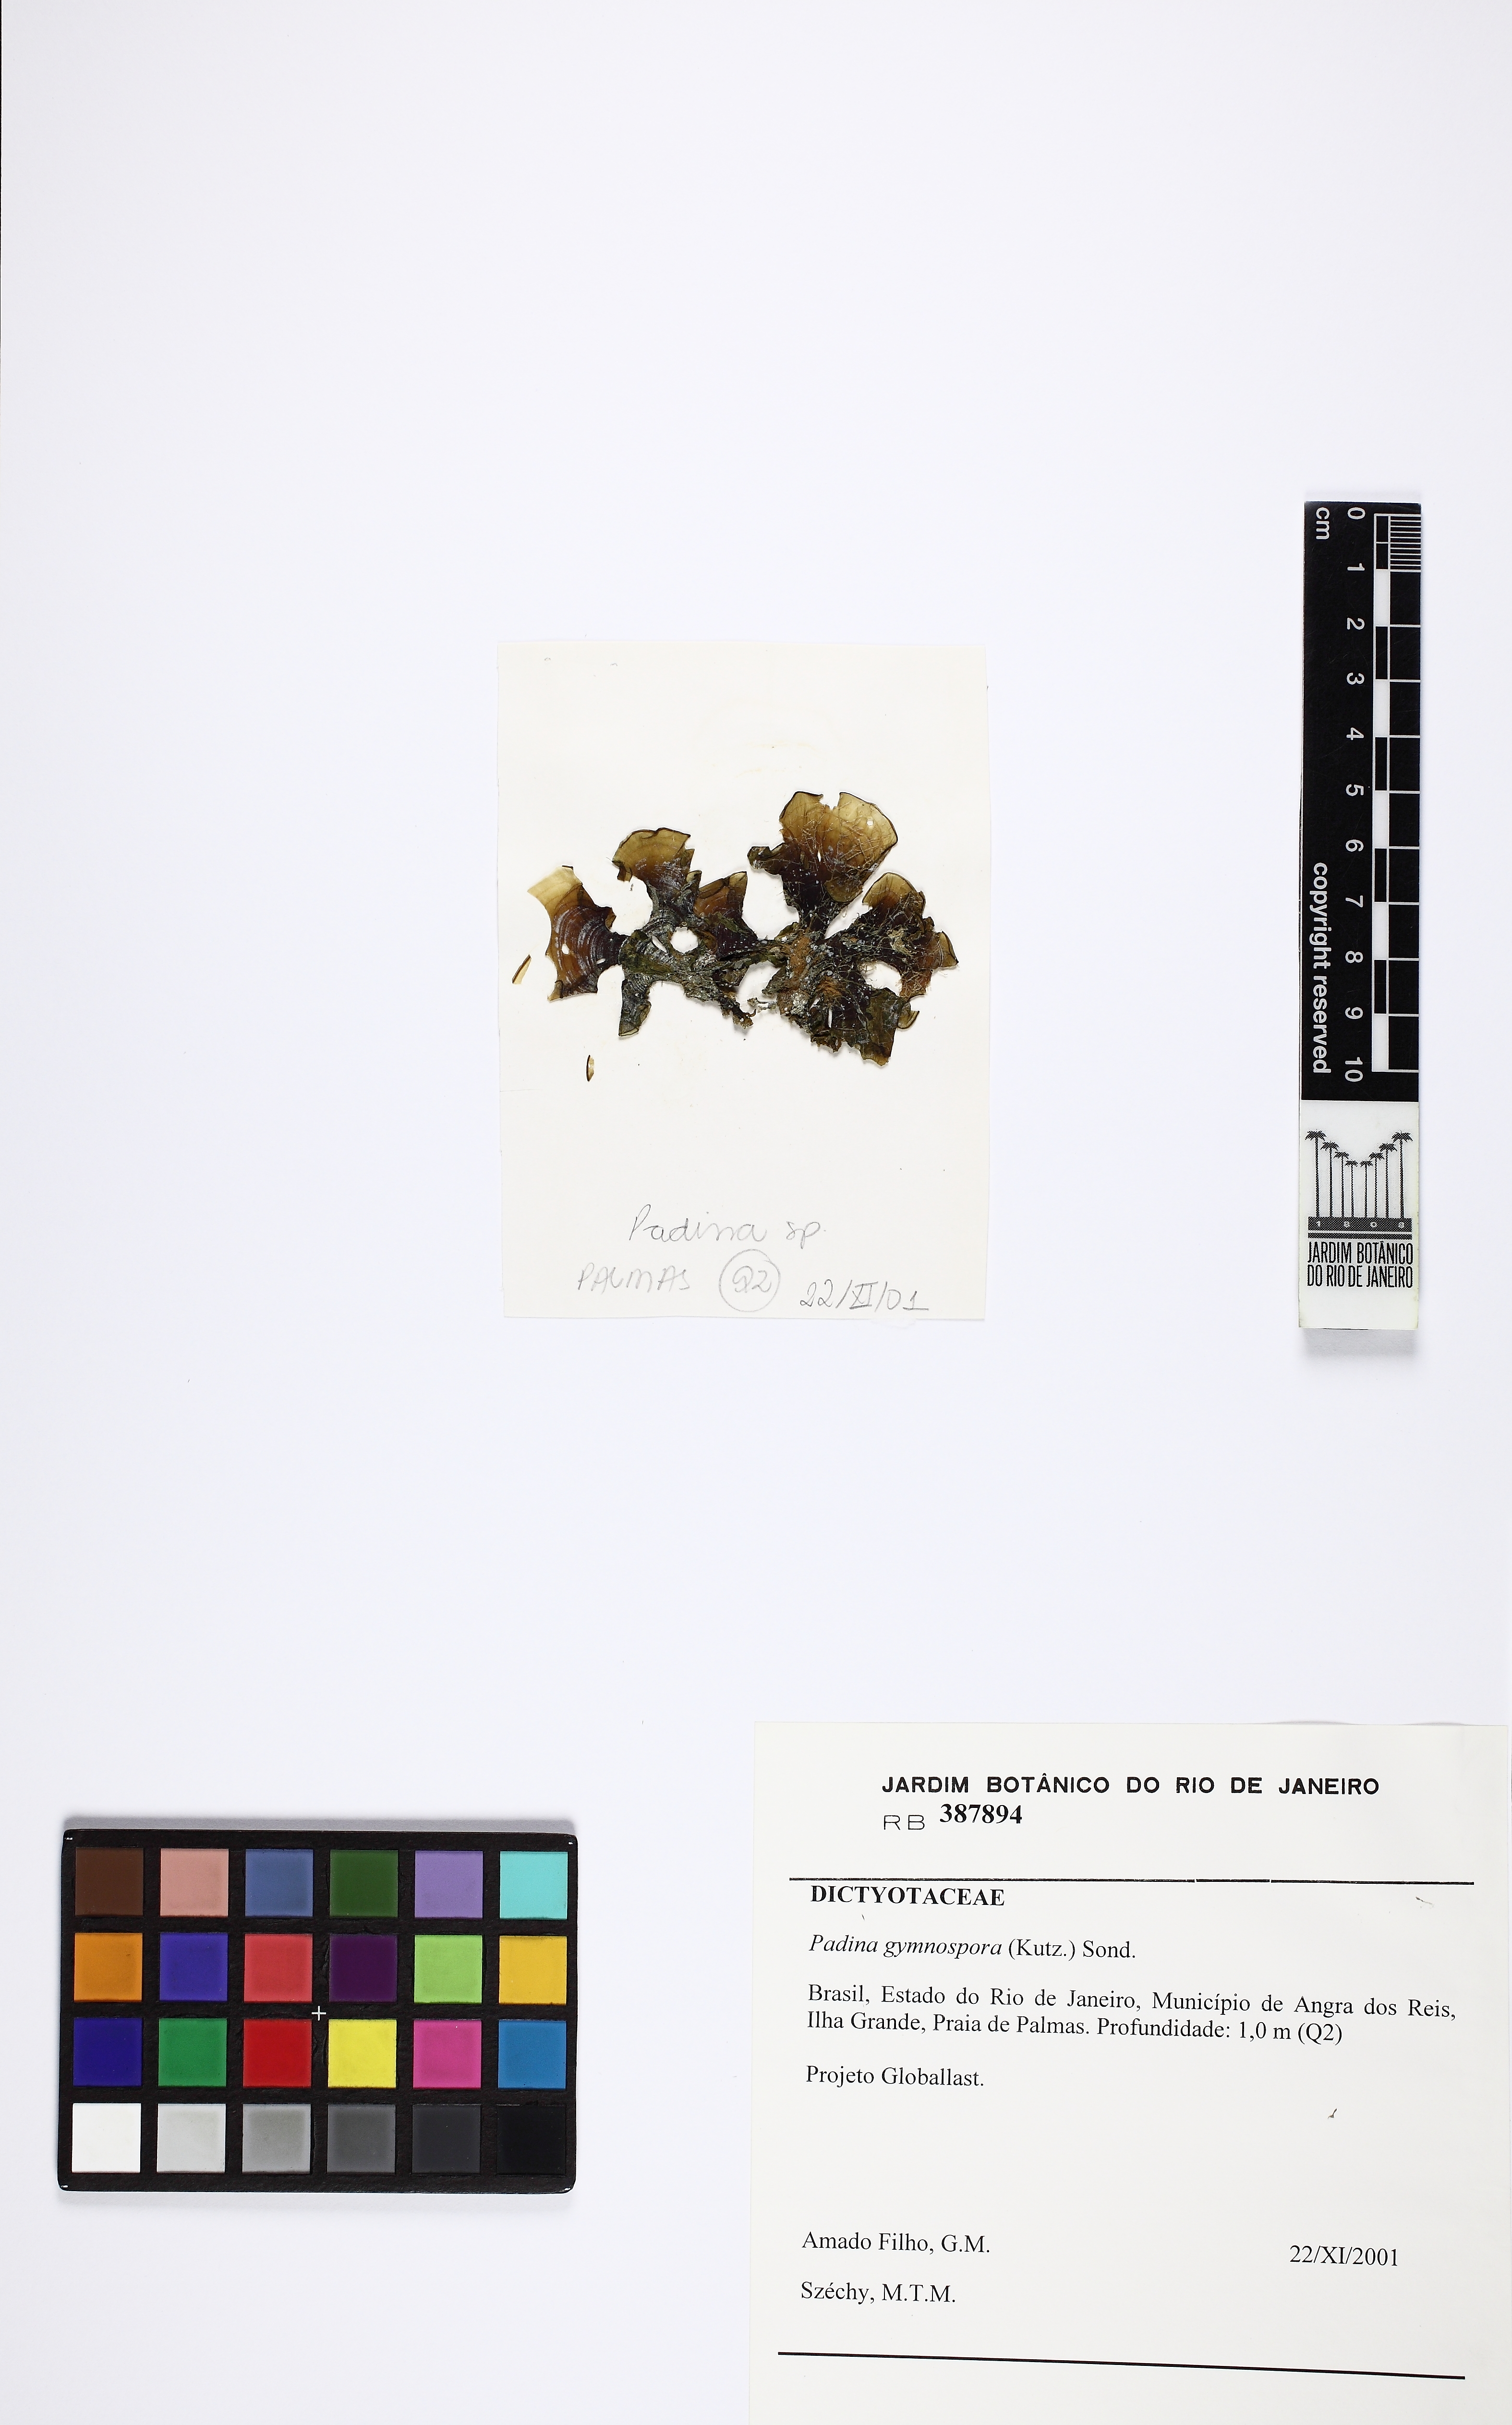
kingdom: Chromista
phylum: Ochrophyta
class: Phaeophyceae
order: Dictyotales
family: Dictyotaceae
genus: Padina
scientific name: Padina gymnospora
